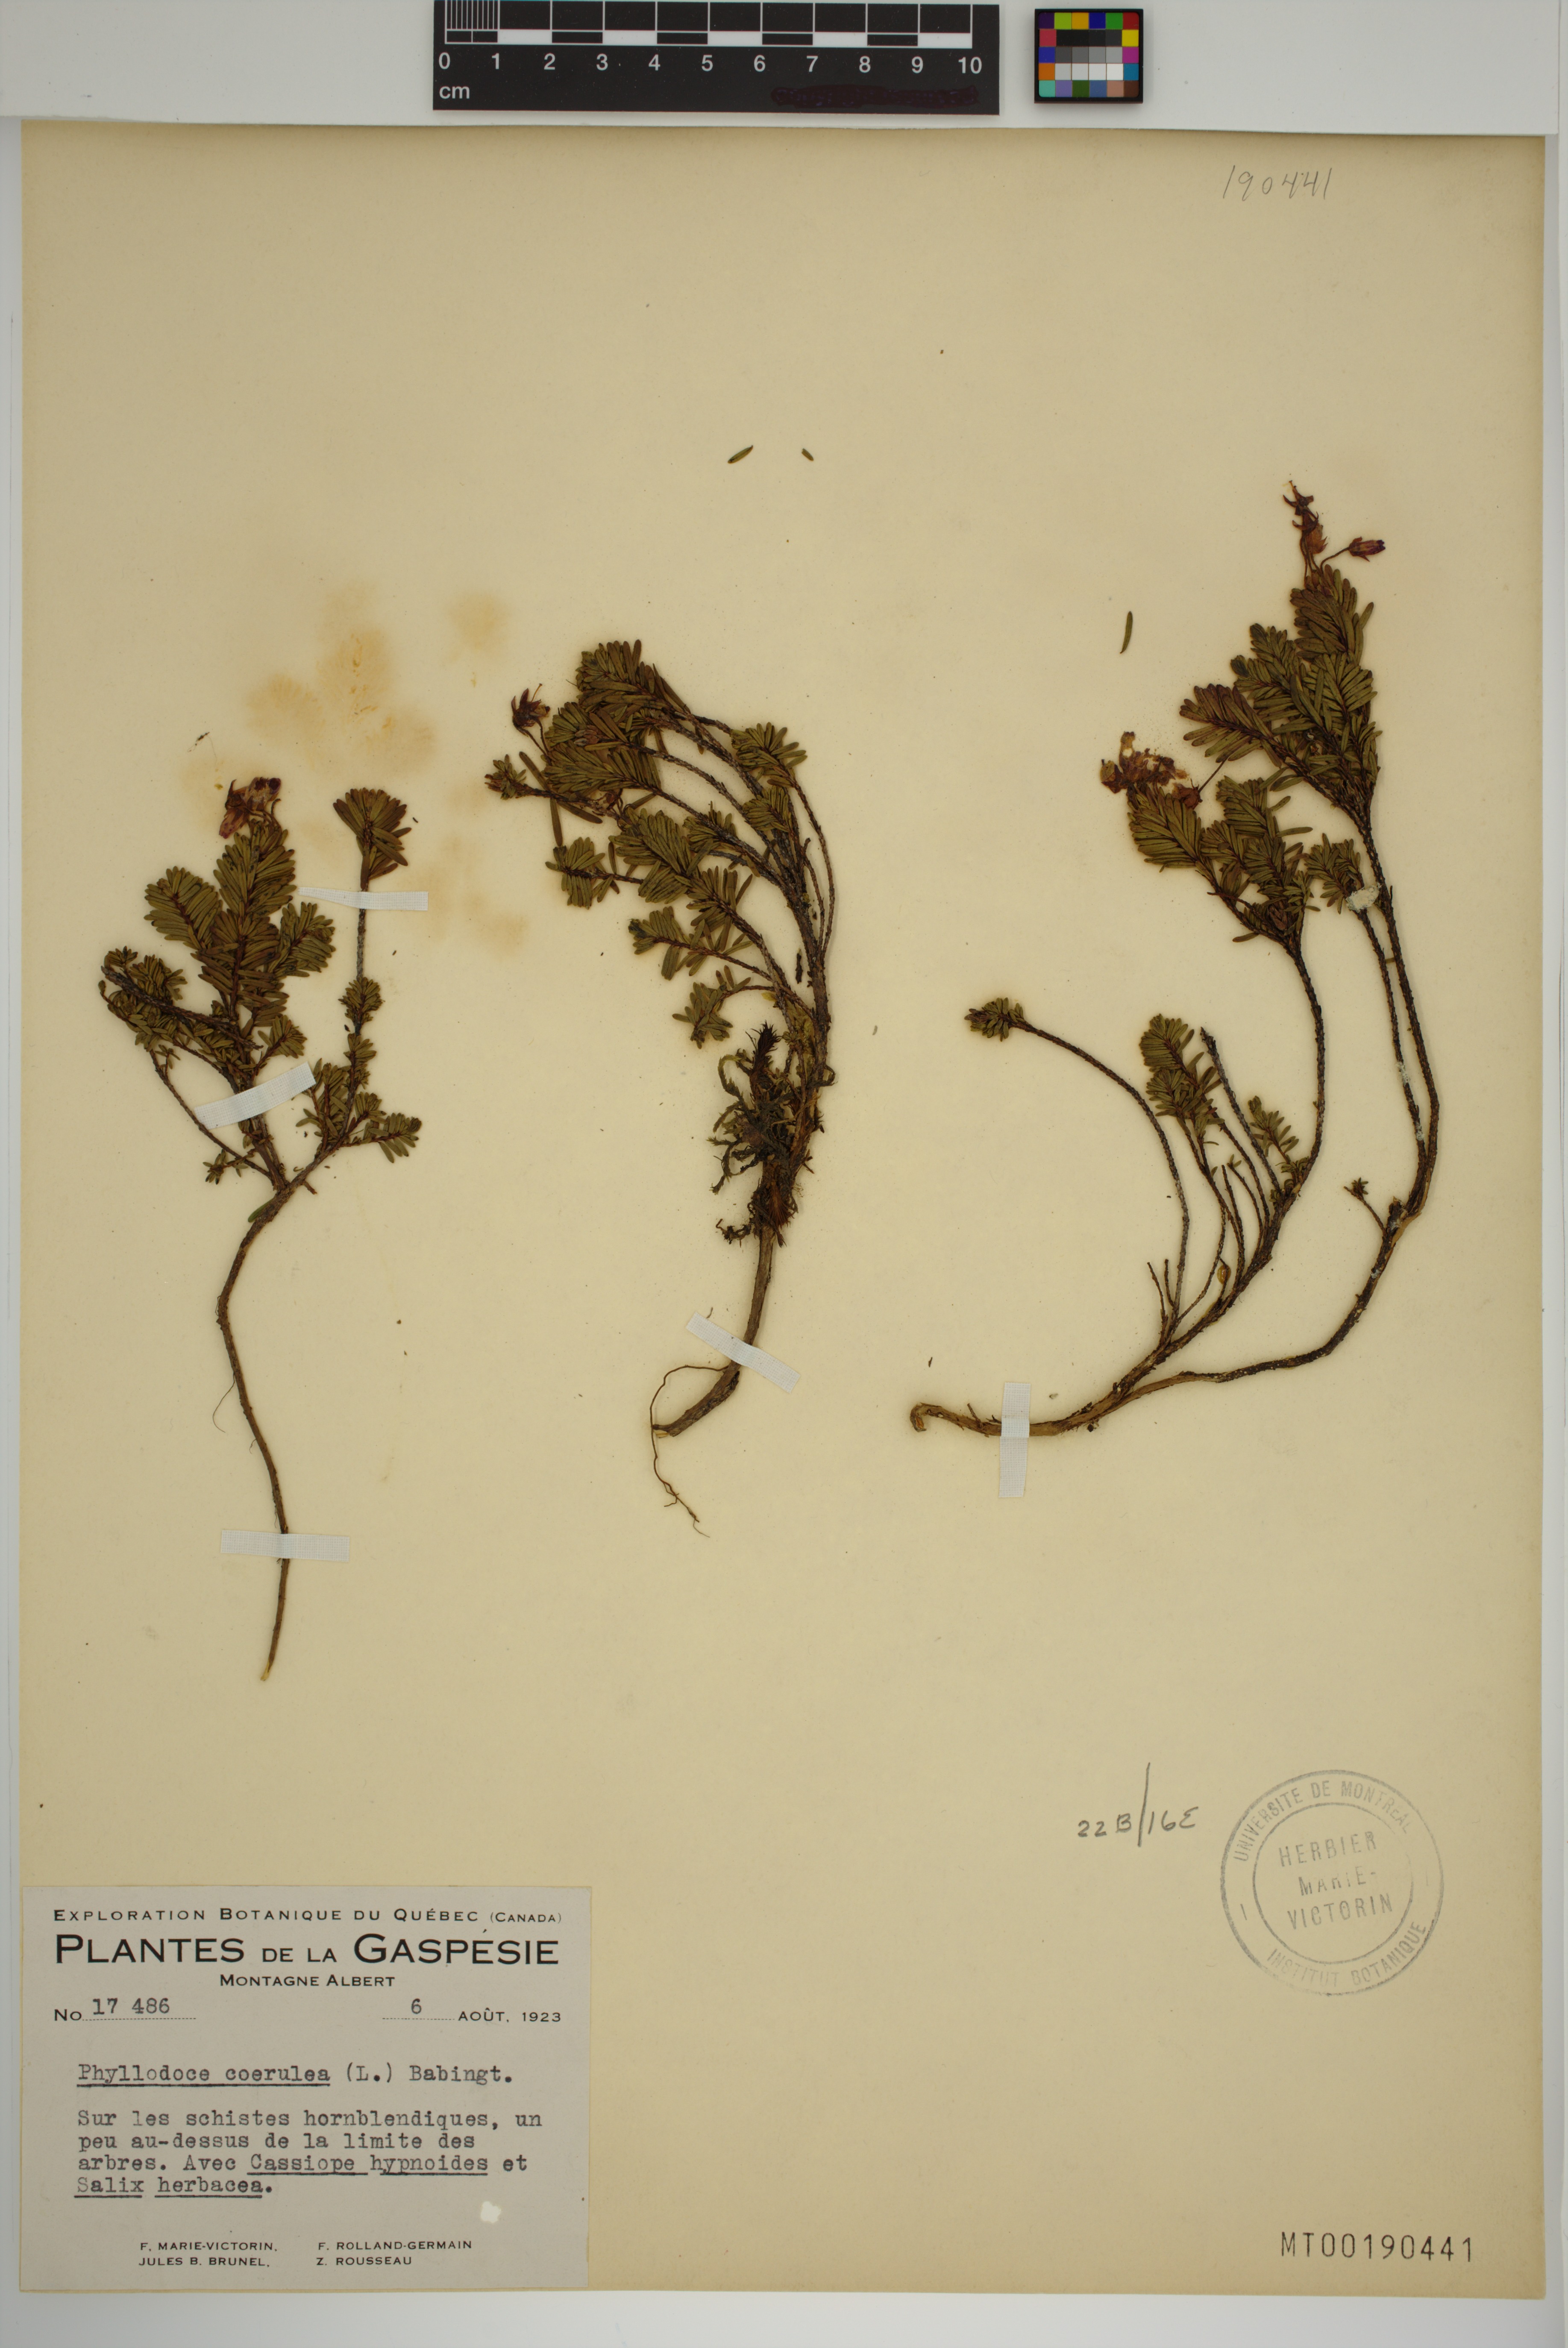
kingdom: Plantae
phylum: Tracheophyta
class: Magnoliopsida
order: Ericales
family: Ericaceae
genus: Phyllodoce
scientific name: Phyllodoce caerulea
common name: Blue heath
